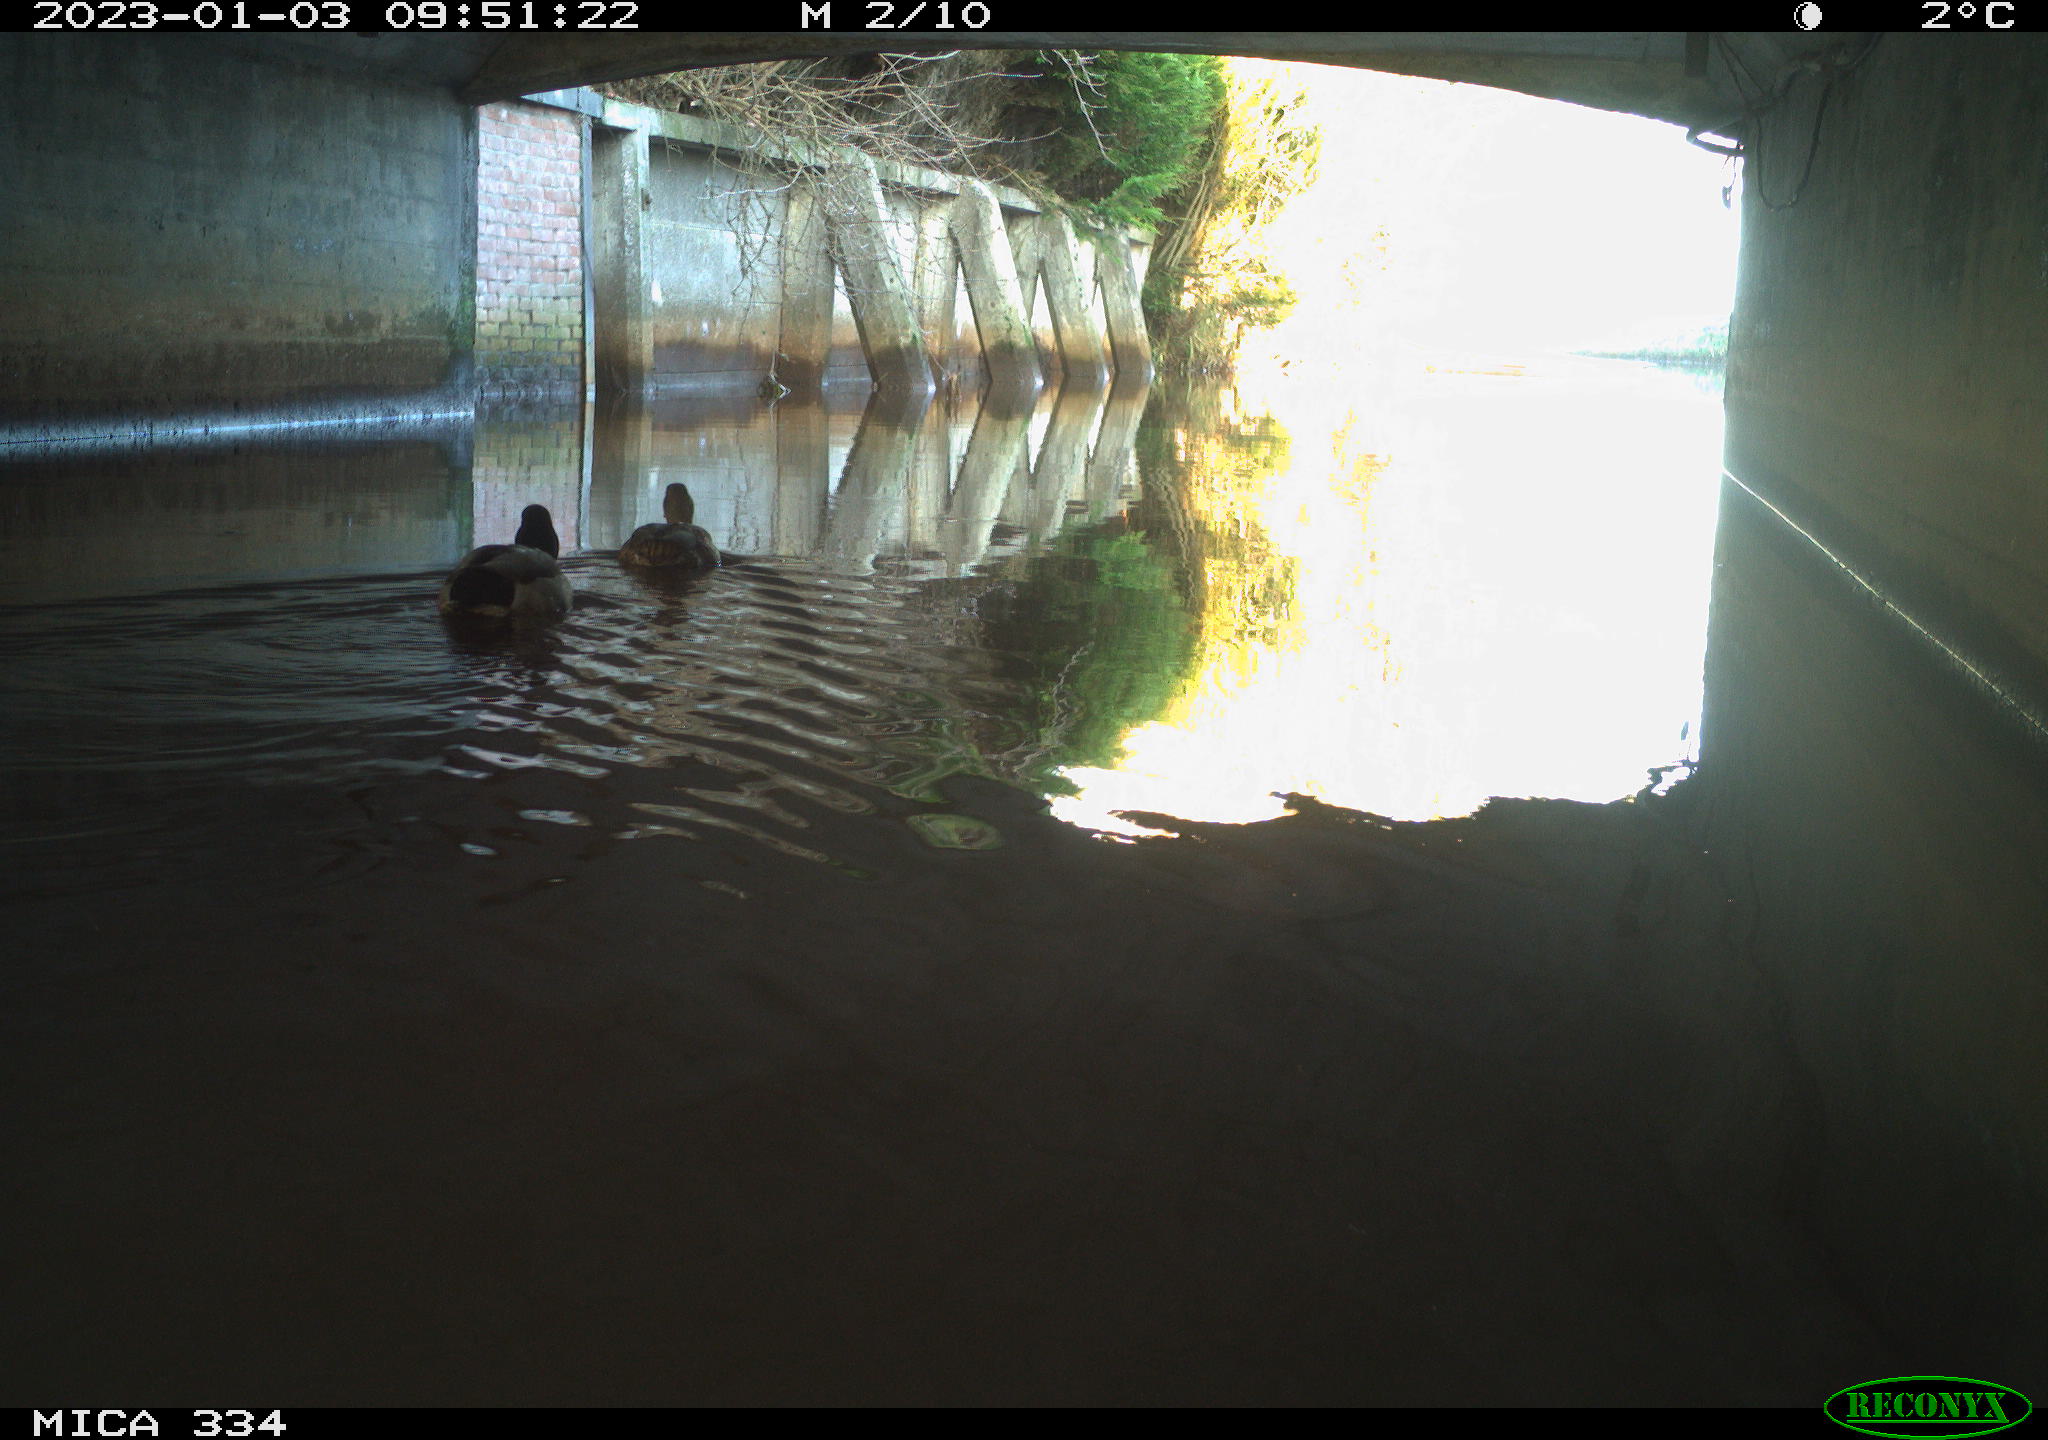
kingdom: Animalia
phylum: Chordata
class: Aves
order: Anseriformes
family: Anatidae
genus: Anas
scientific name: Anas
